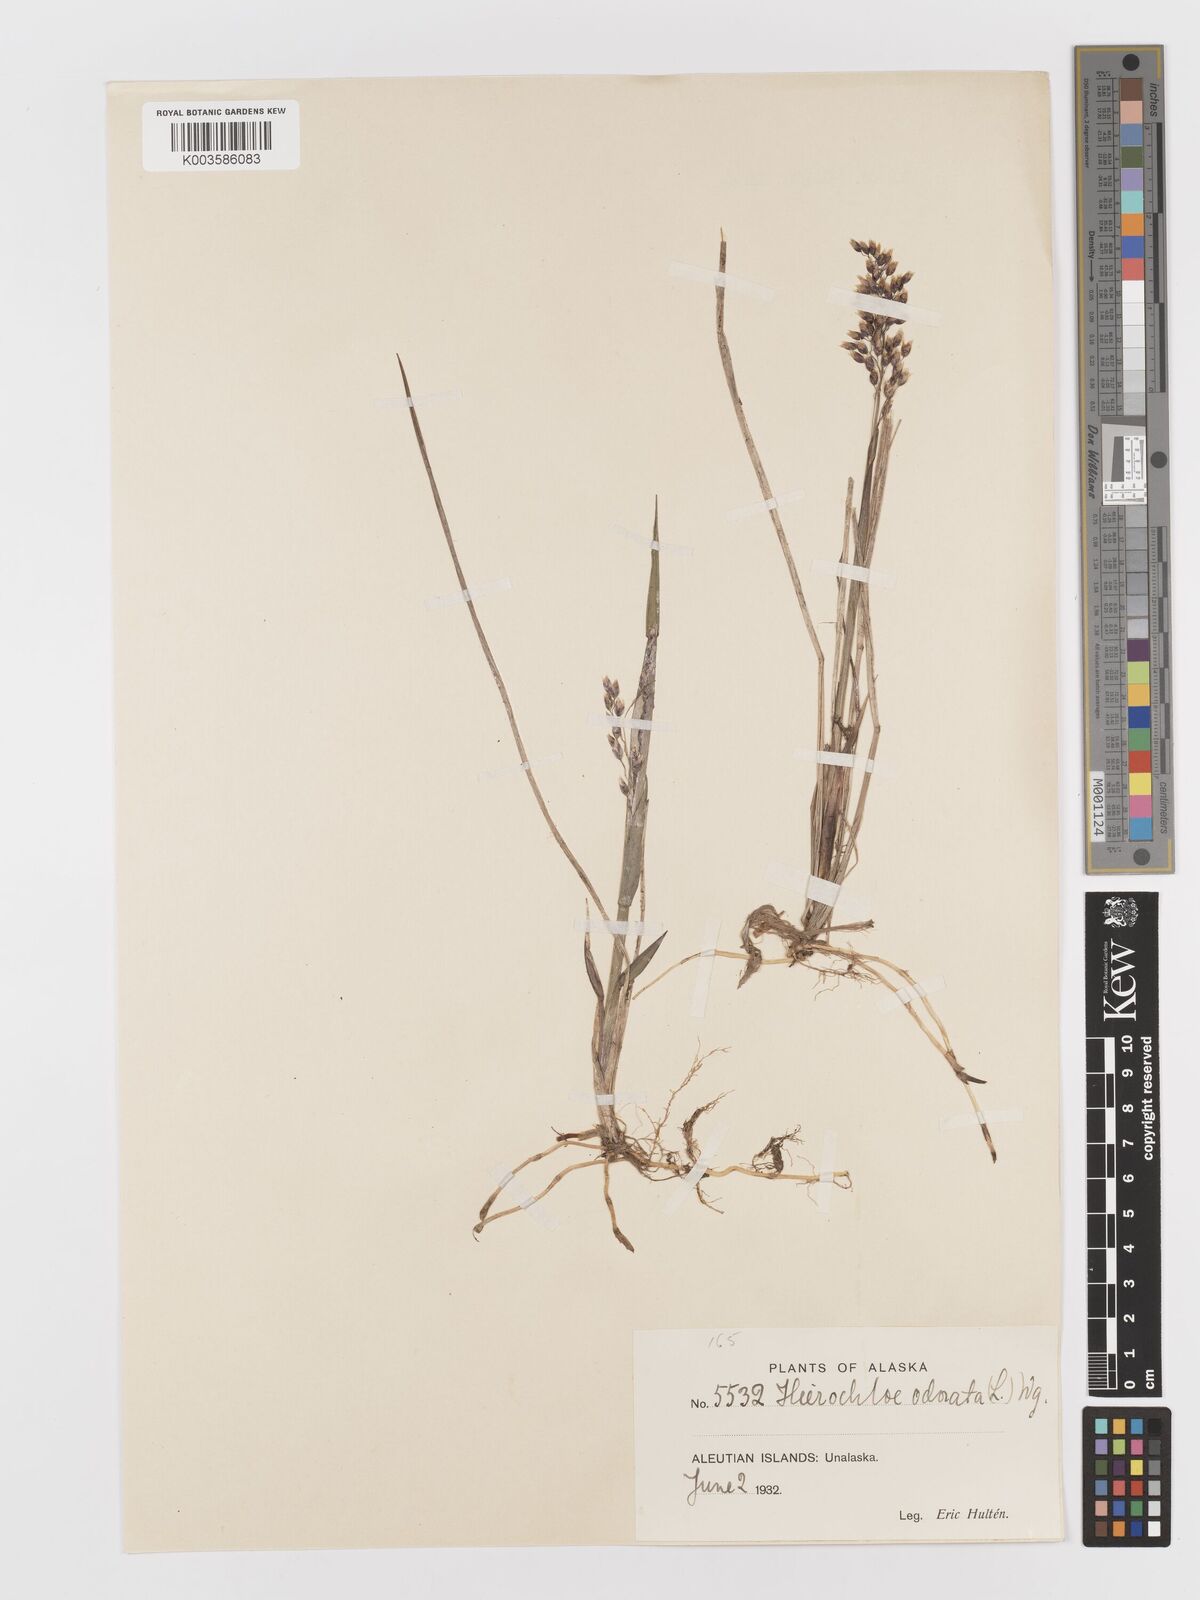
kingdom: Plantae
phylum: Tracheophyta
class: Liliopsida
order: Poales
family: Poaceae
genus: Anthoxanthum
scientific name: Anthoxanthum nitens
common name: Holy grass
